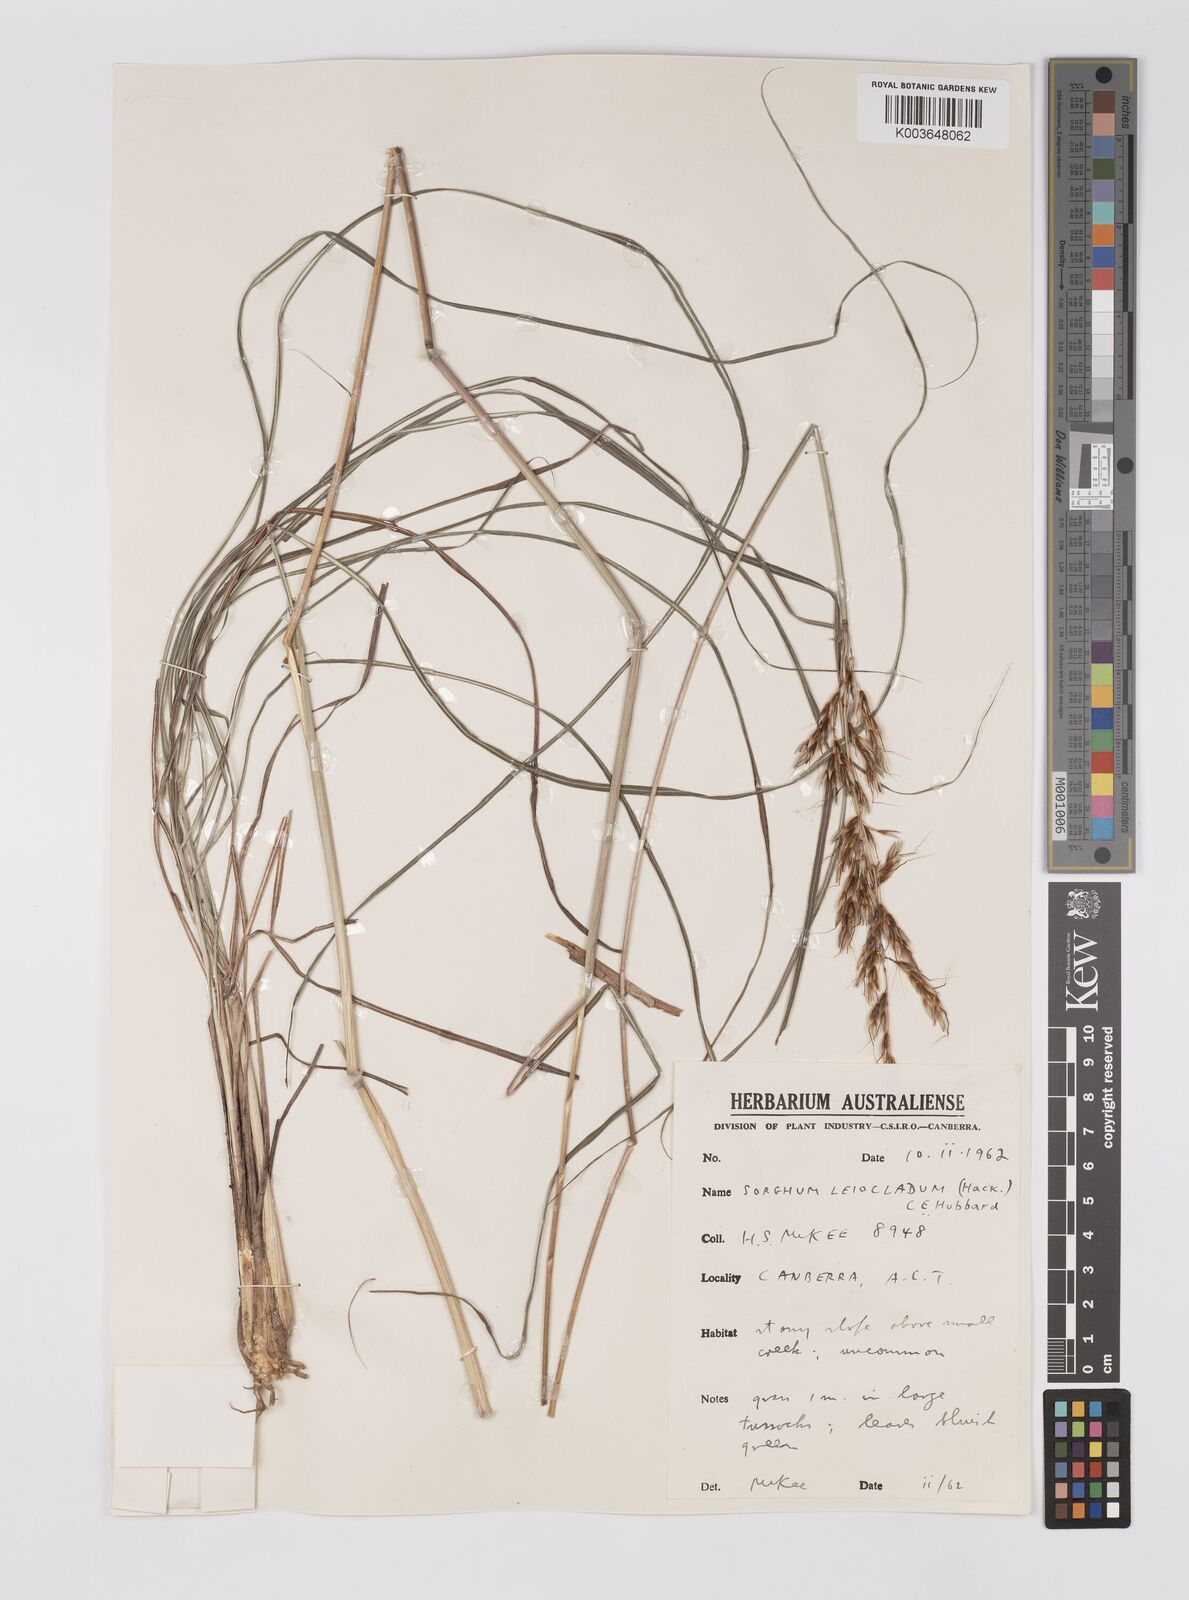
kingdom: Plantae
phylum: Tracheophyta
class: Liliopsida
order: Poales
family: Poaceae
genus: Sarga
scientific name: Sarga leioclada
